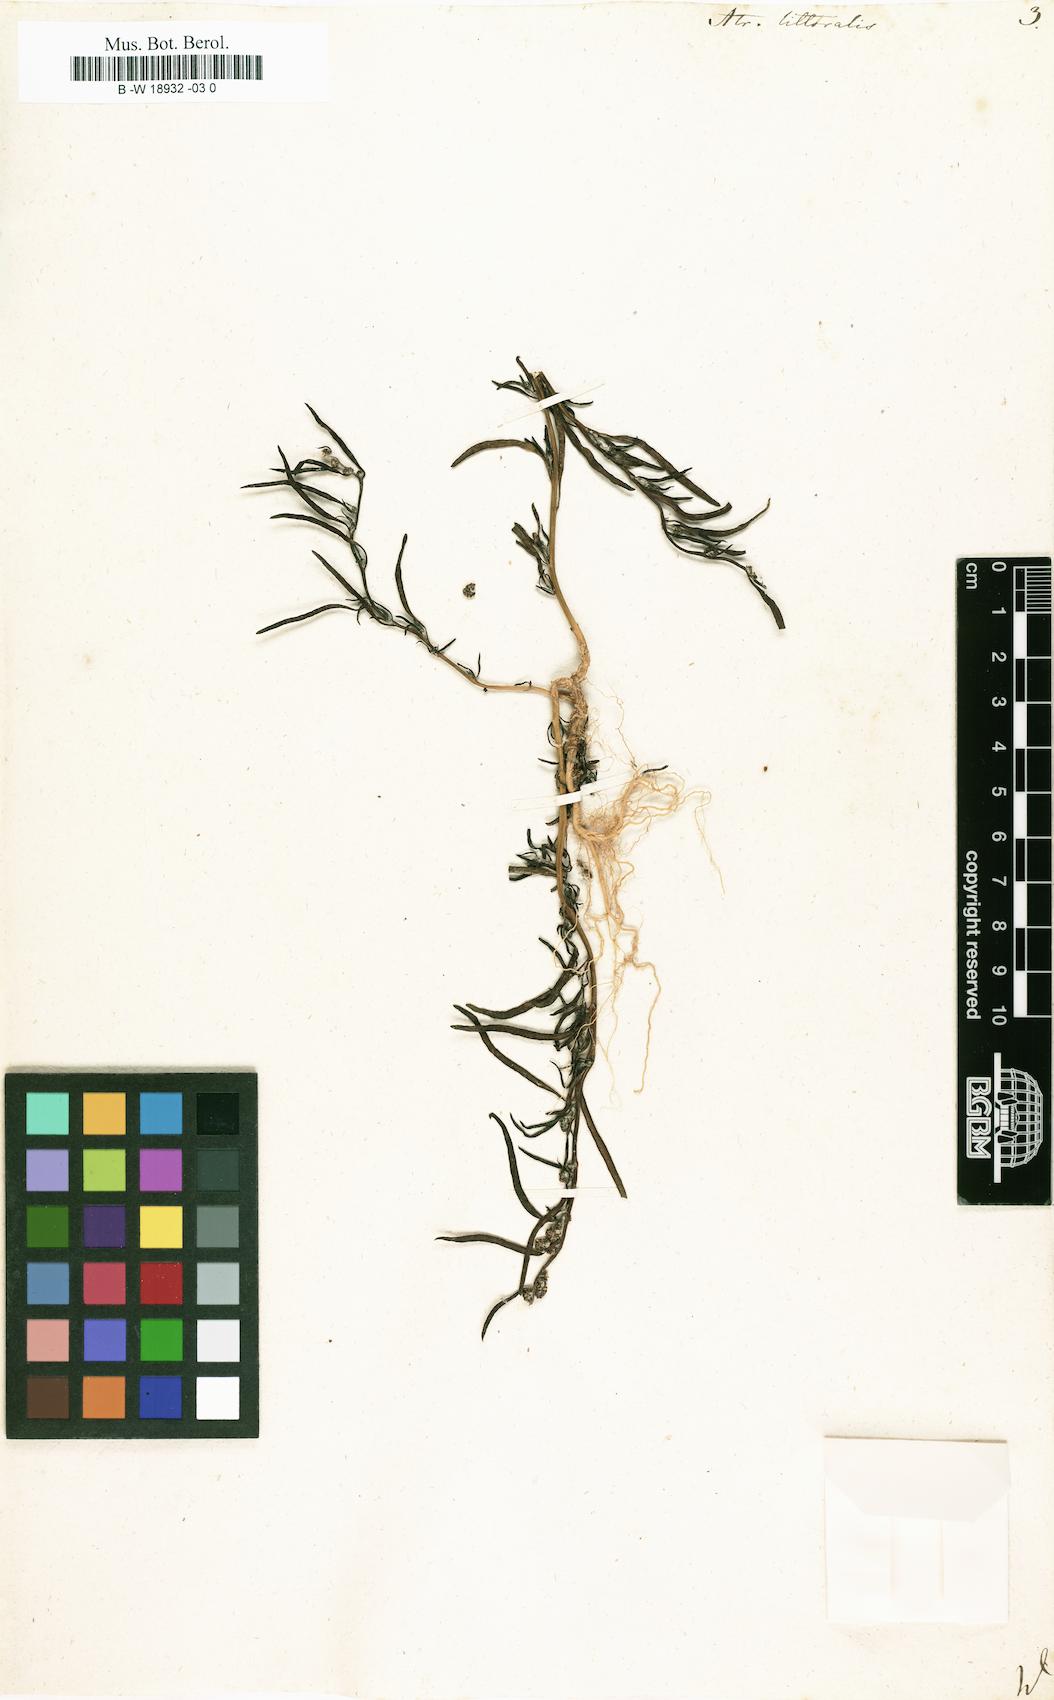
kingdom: Plantae
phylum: Tracheophyta
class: Magnoliopsida
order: Caryophyllales
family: Amaranthaceae
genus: Atriplex
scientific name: Atriplex littoralis
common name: Grass-leaved orache
